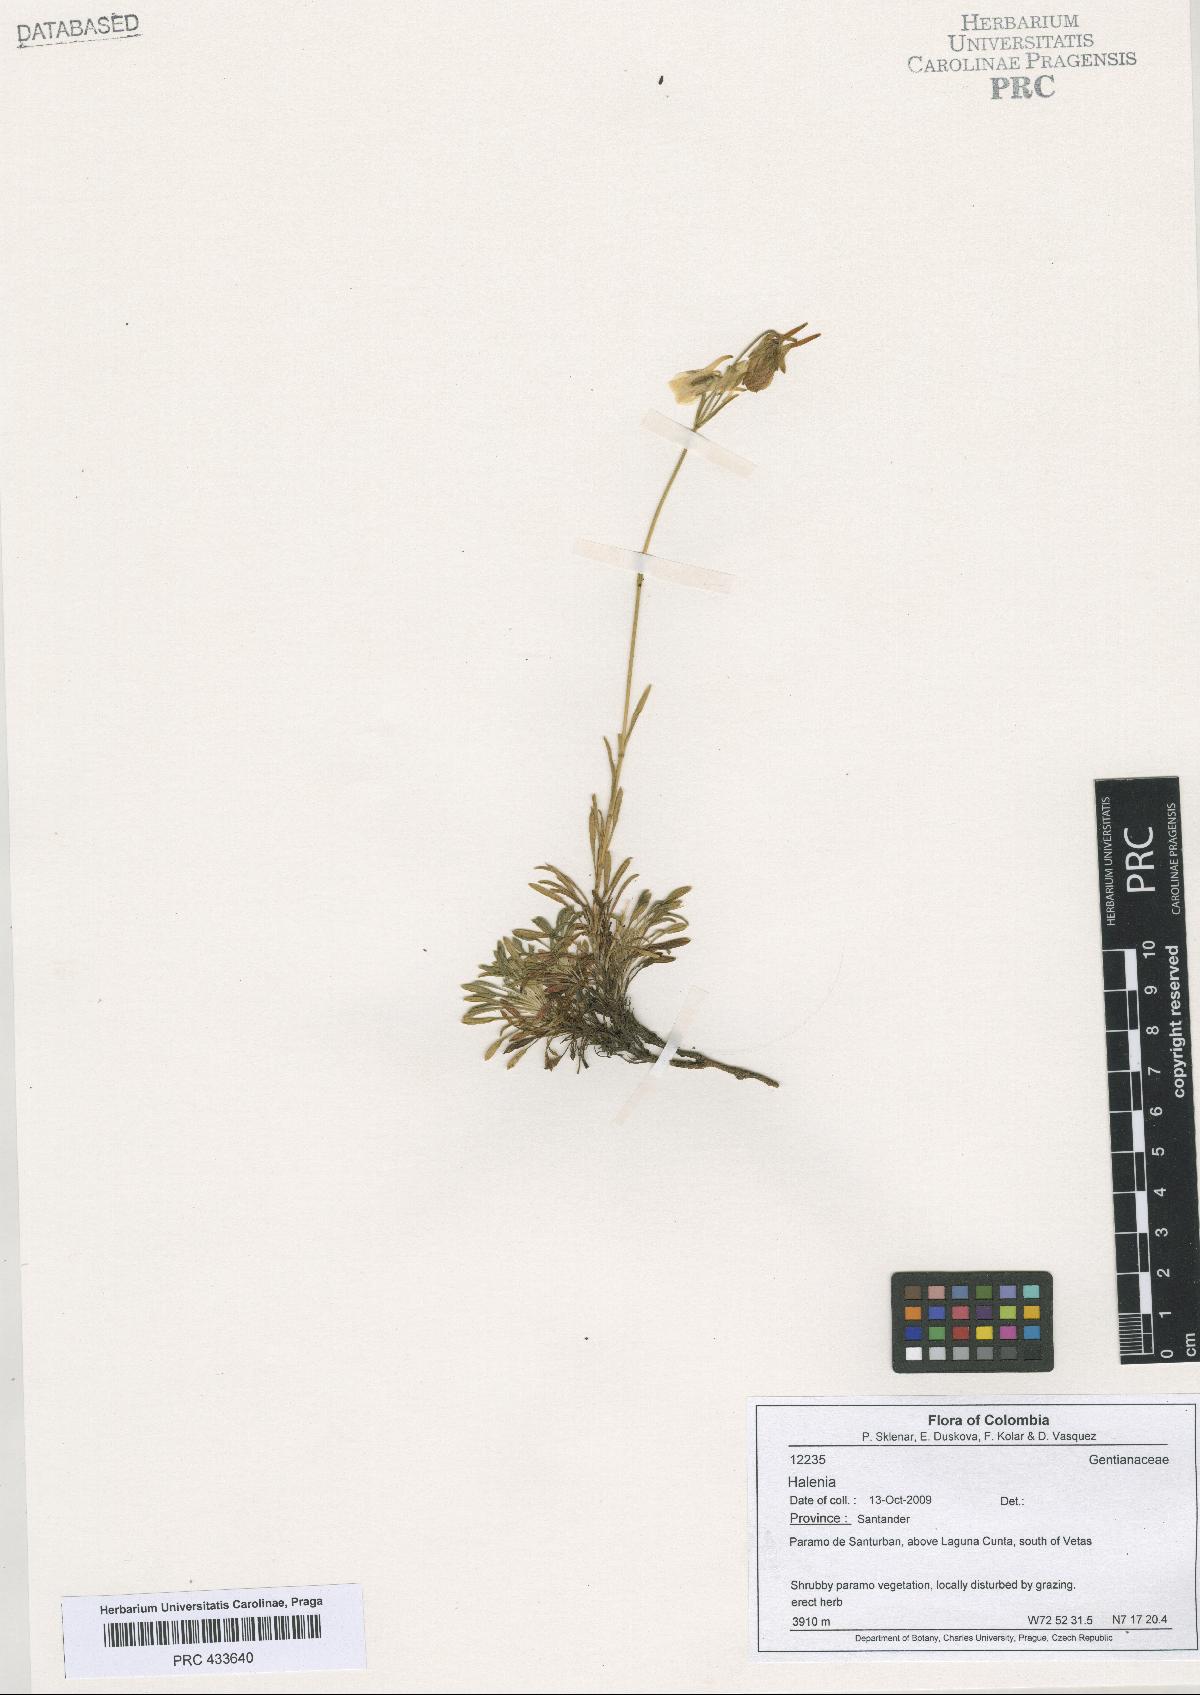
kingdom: Plantae
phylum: Tracheophyta
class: Magnoliopsida
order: Gentianales
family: Gentianaceae
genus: Halenia
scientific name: Halenia
